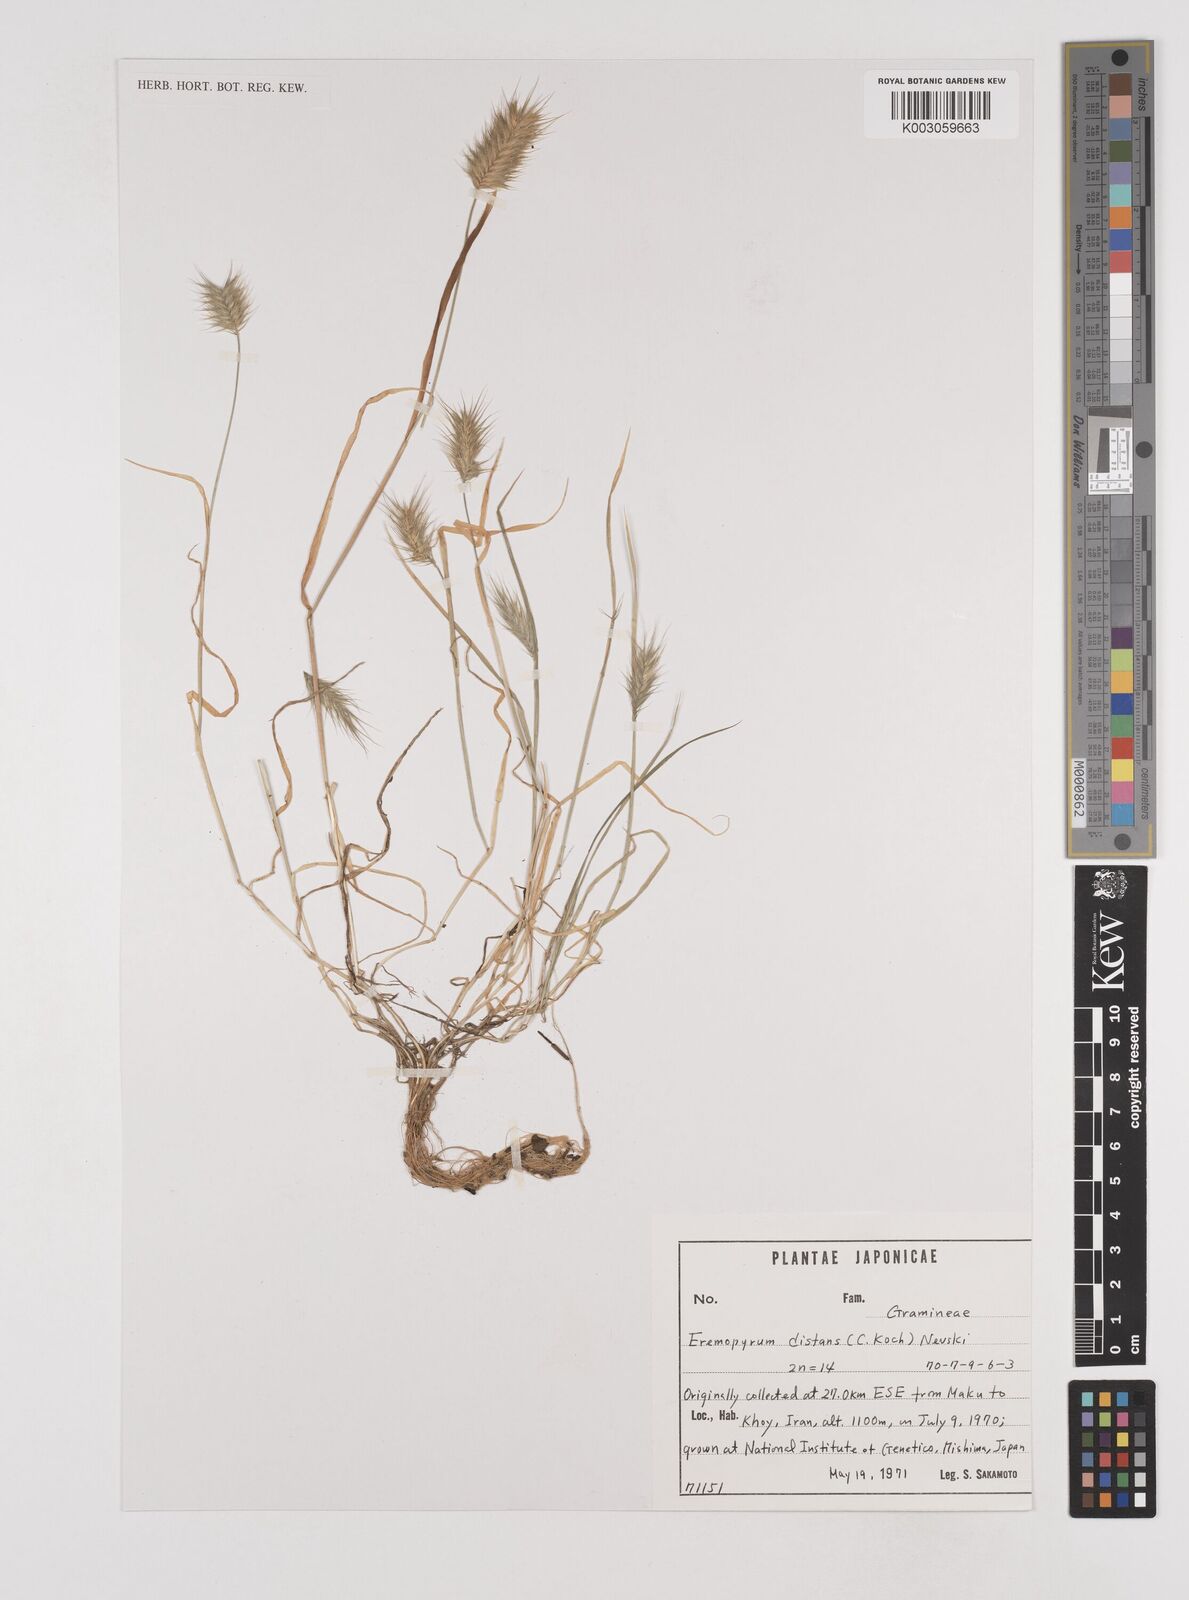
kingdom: Plantae
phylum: Tracheophyta
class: Liliopsida
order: Poales
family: Poaceae
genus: Eremopyrum
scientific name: Eremopyrum distans
